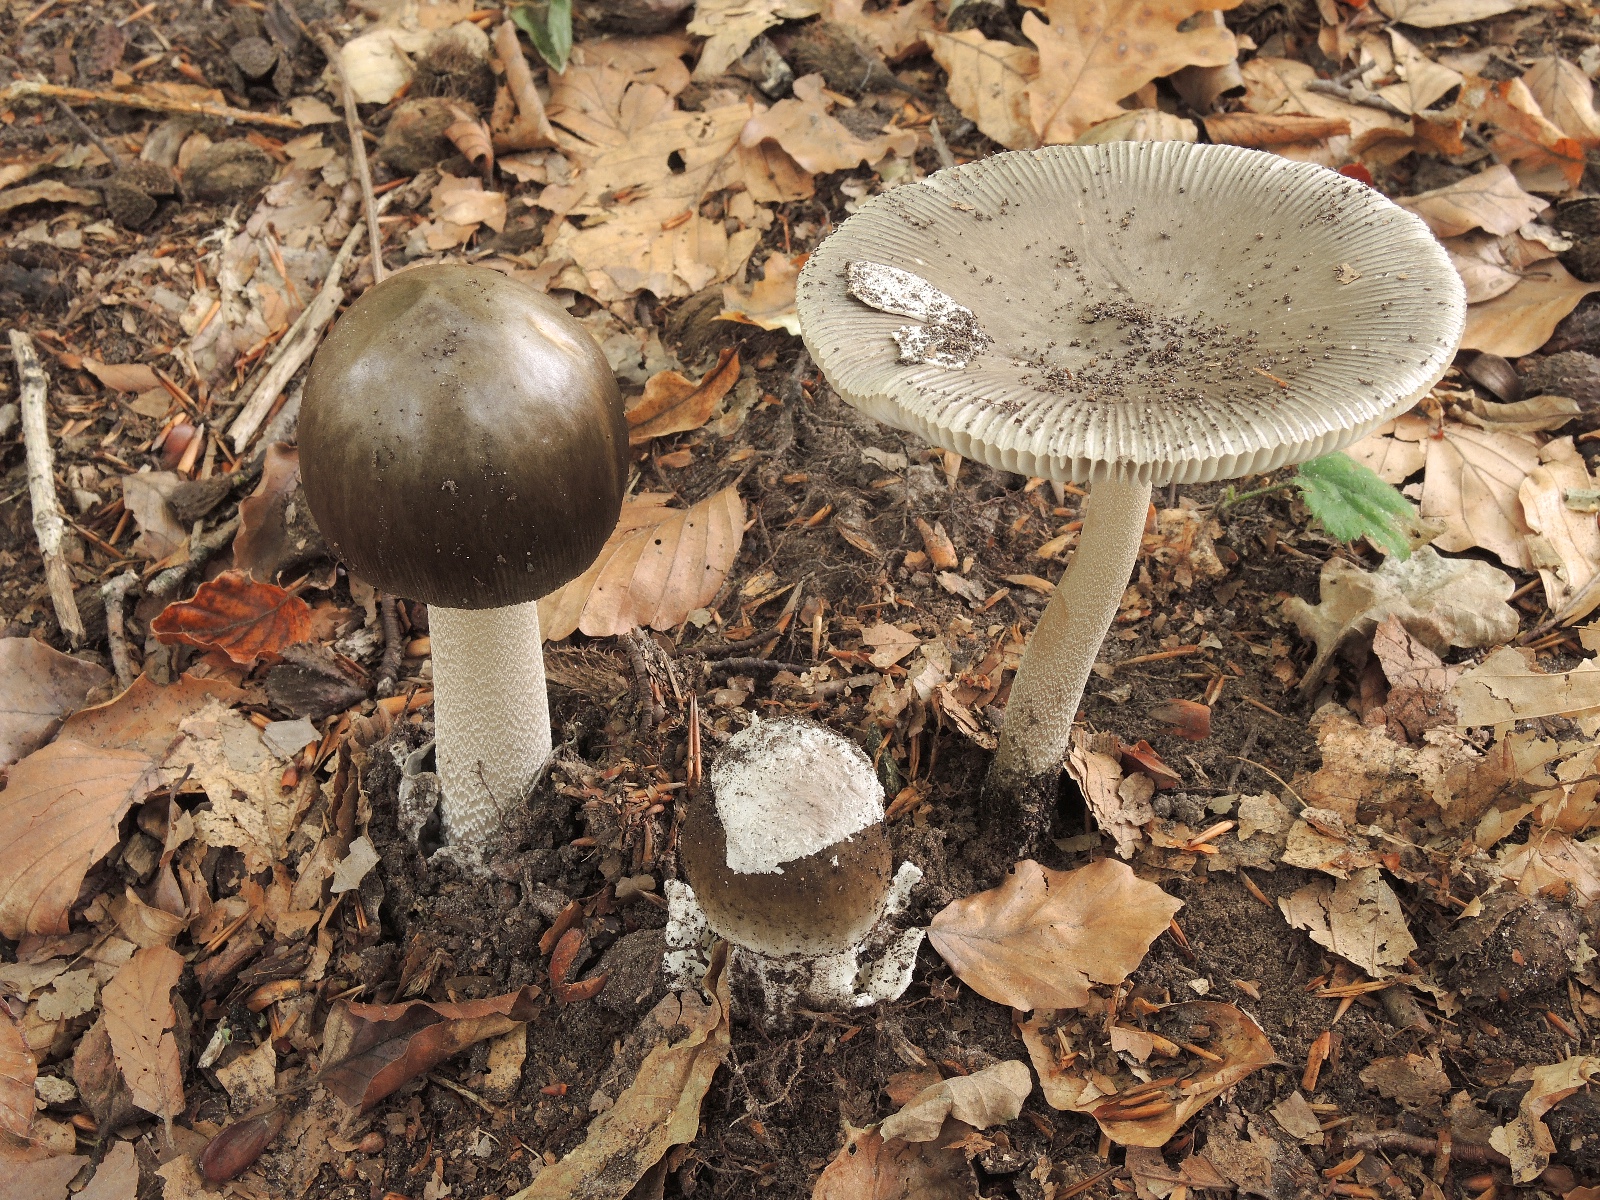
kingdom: Fungi
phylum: Basidiomycota
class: Agaricomycetes
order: Agaricales
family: Amanitaceae
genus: Amanita
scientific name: Amanita submembranacea
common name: gråspættet kam-fluesvamp
